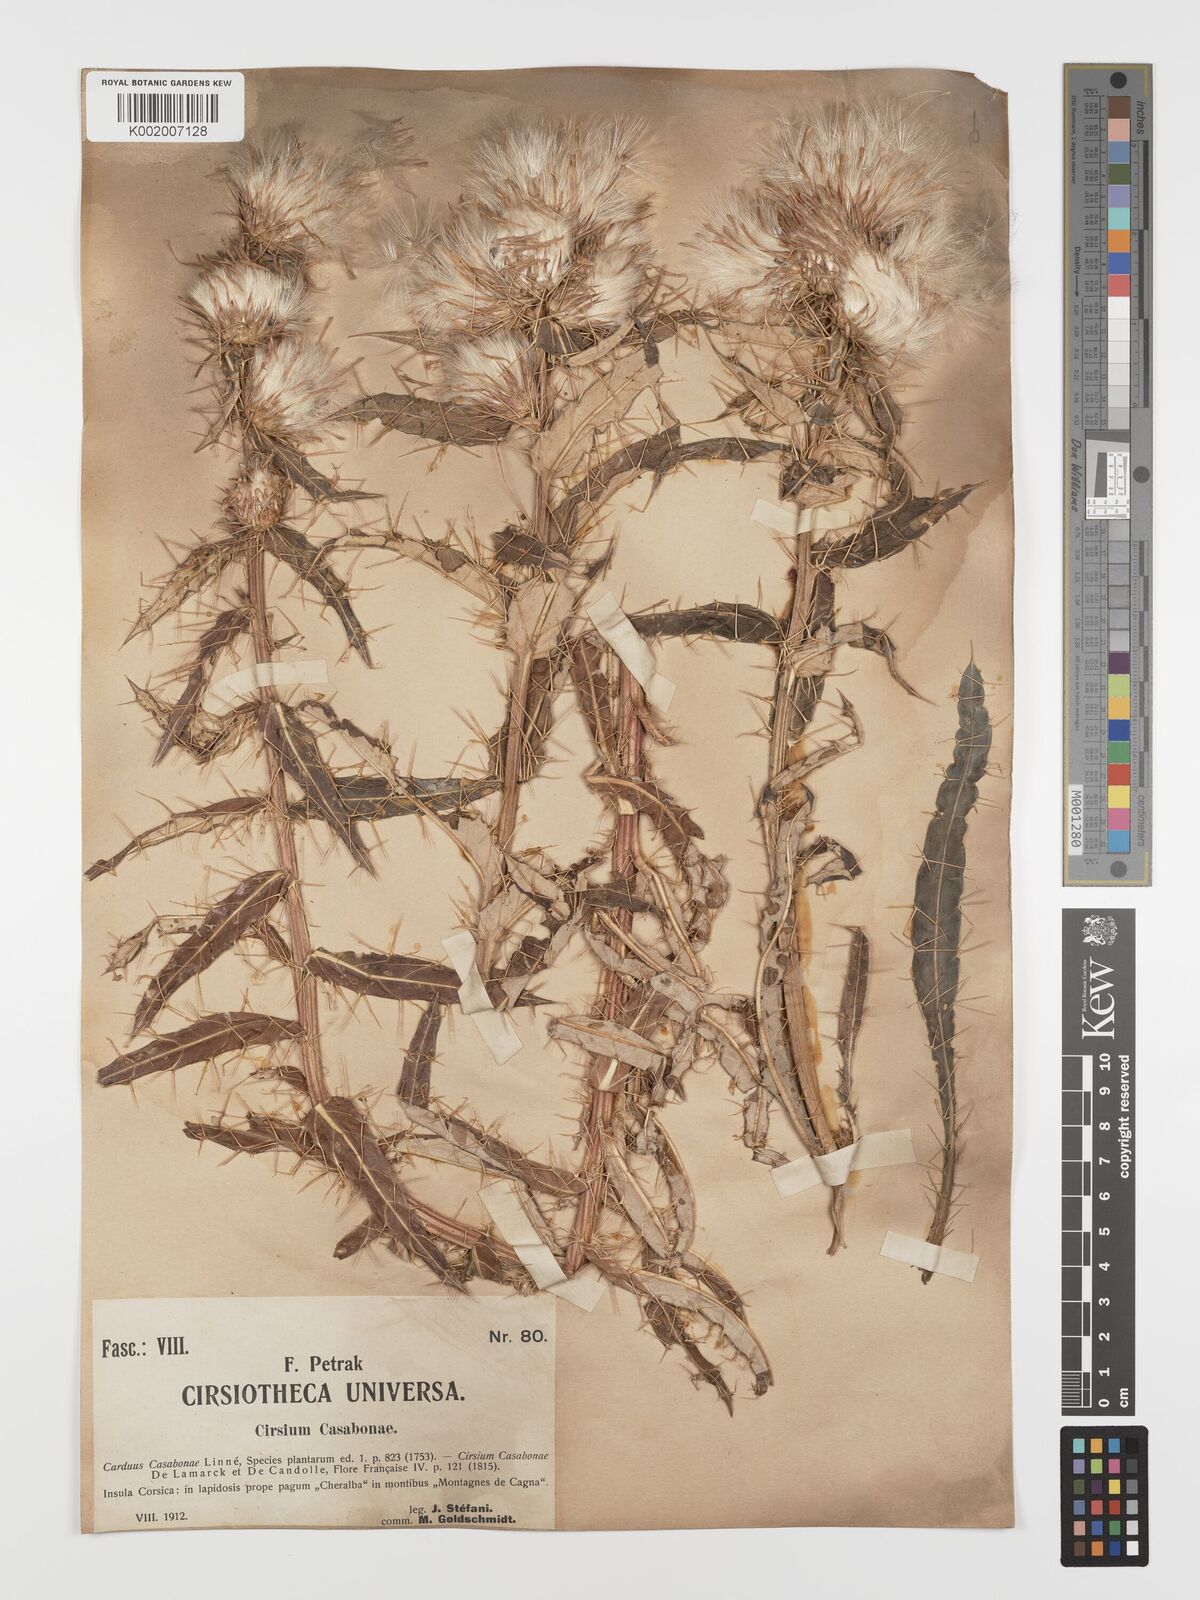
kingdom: Plantae
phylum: Tracheophyta
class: Magnoliopsida
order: Asterales
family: Asteraceae
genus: Ptilostemon
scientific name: Ptilostemon casabonae
